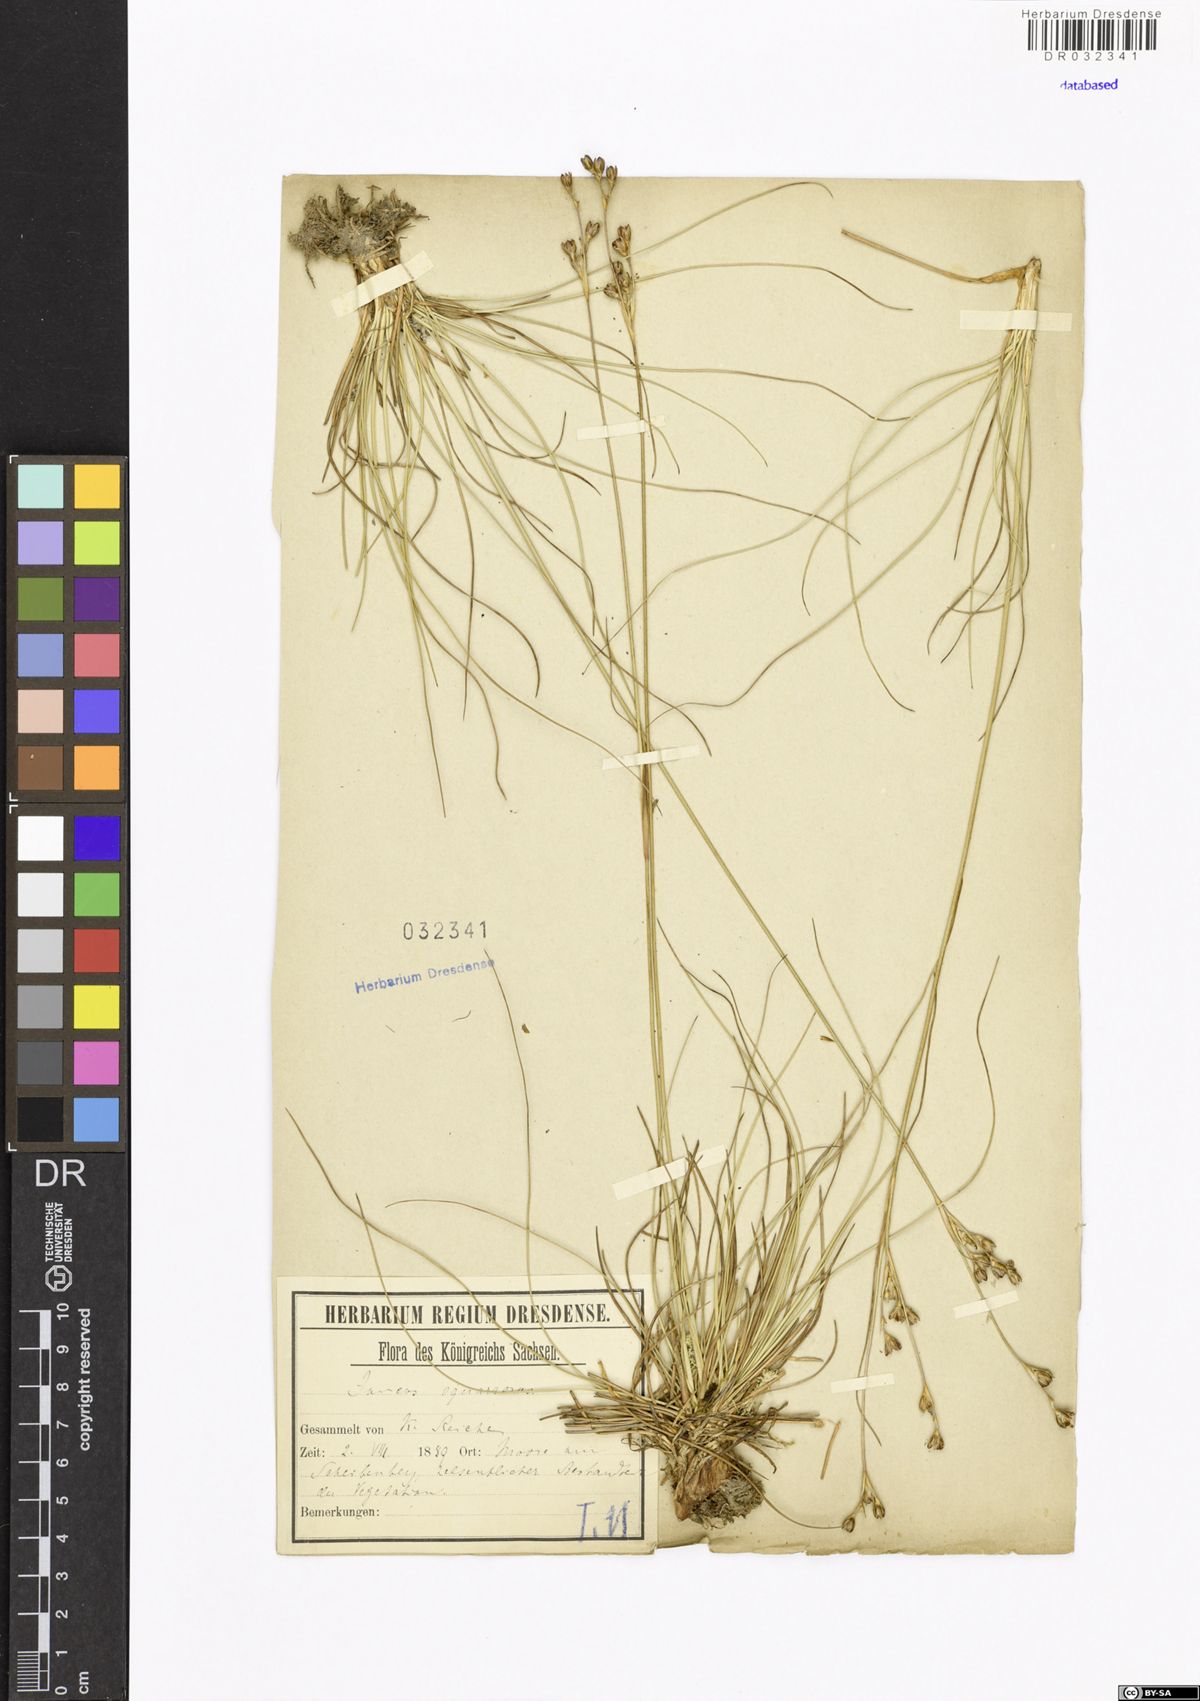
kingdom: Plantae
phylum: Tracheophyta
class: Liliopsida
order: Poales
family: Juncaceae
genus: Juncus
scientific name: Juncus squarrosus
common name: Heath rush
